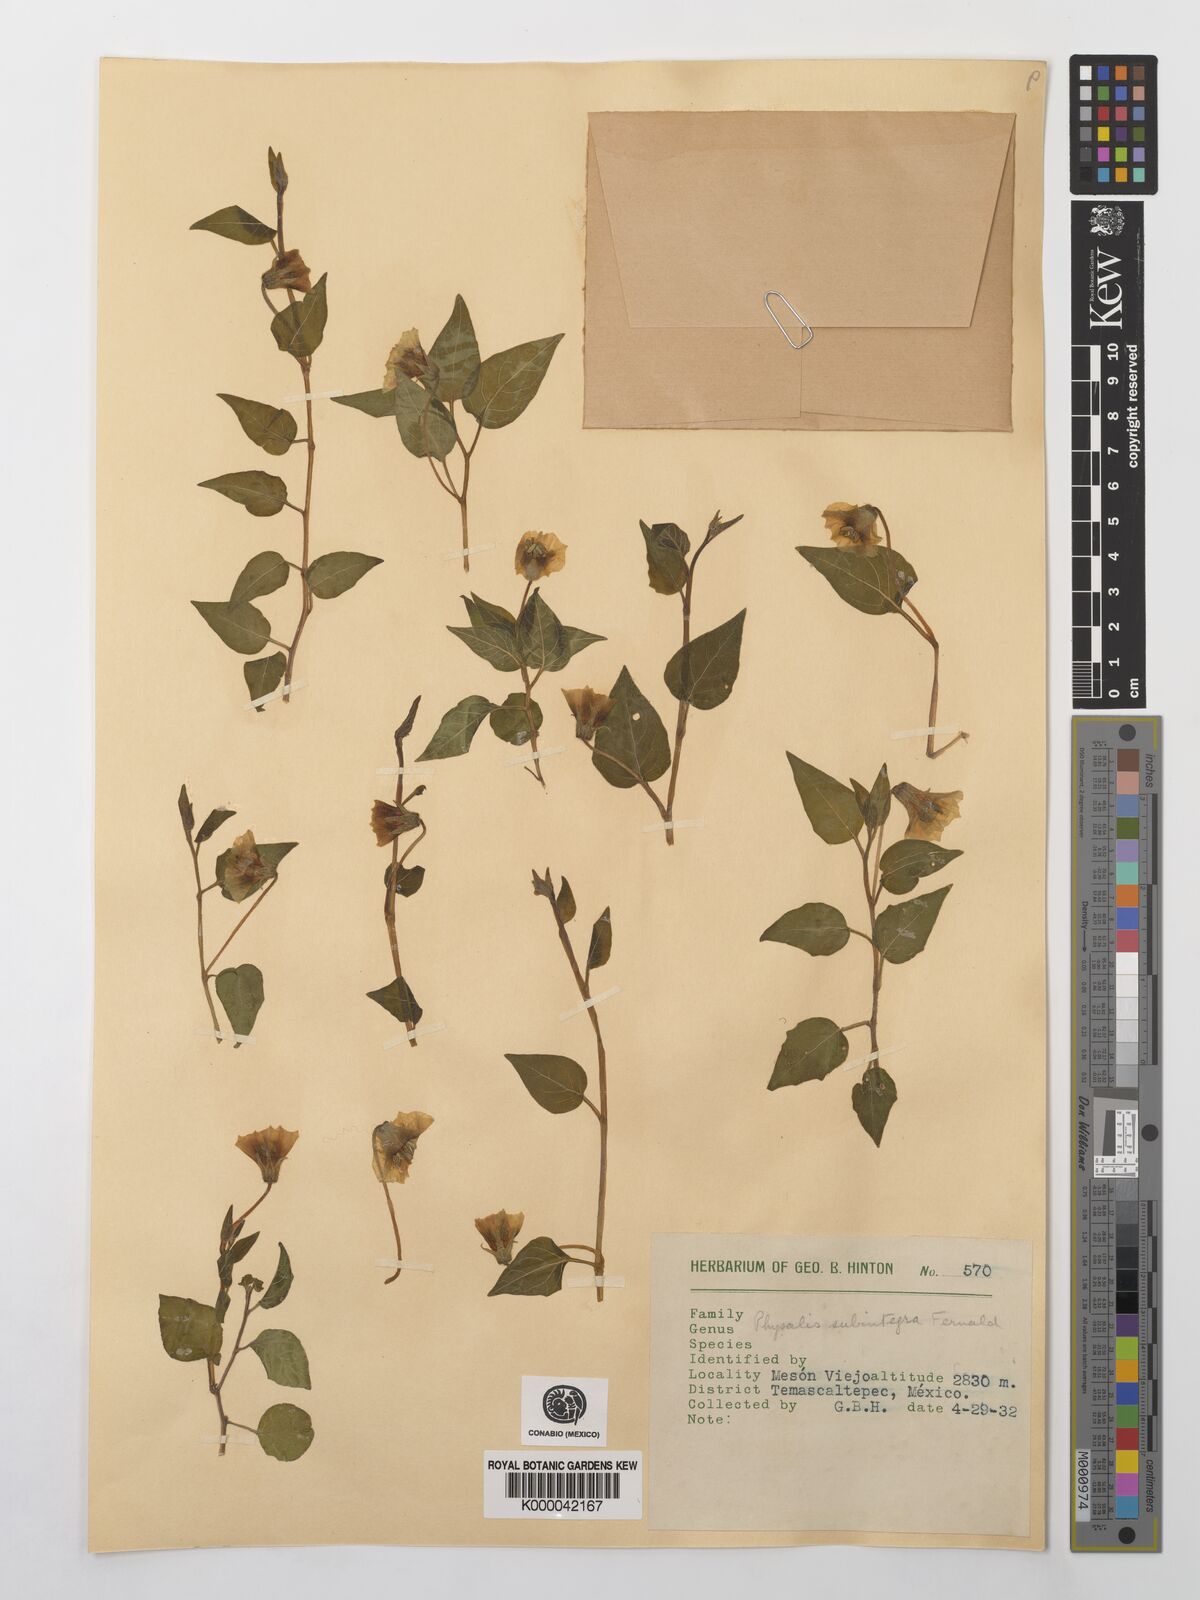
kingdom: Plantae
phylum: Tracheophyta
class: Magnoliopsida
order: Solanales
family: Solanaceae
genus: Physalis
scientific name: Physalis orizabae
